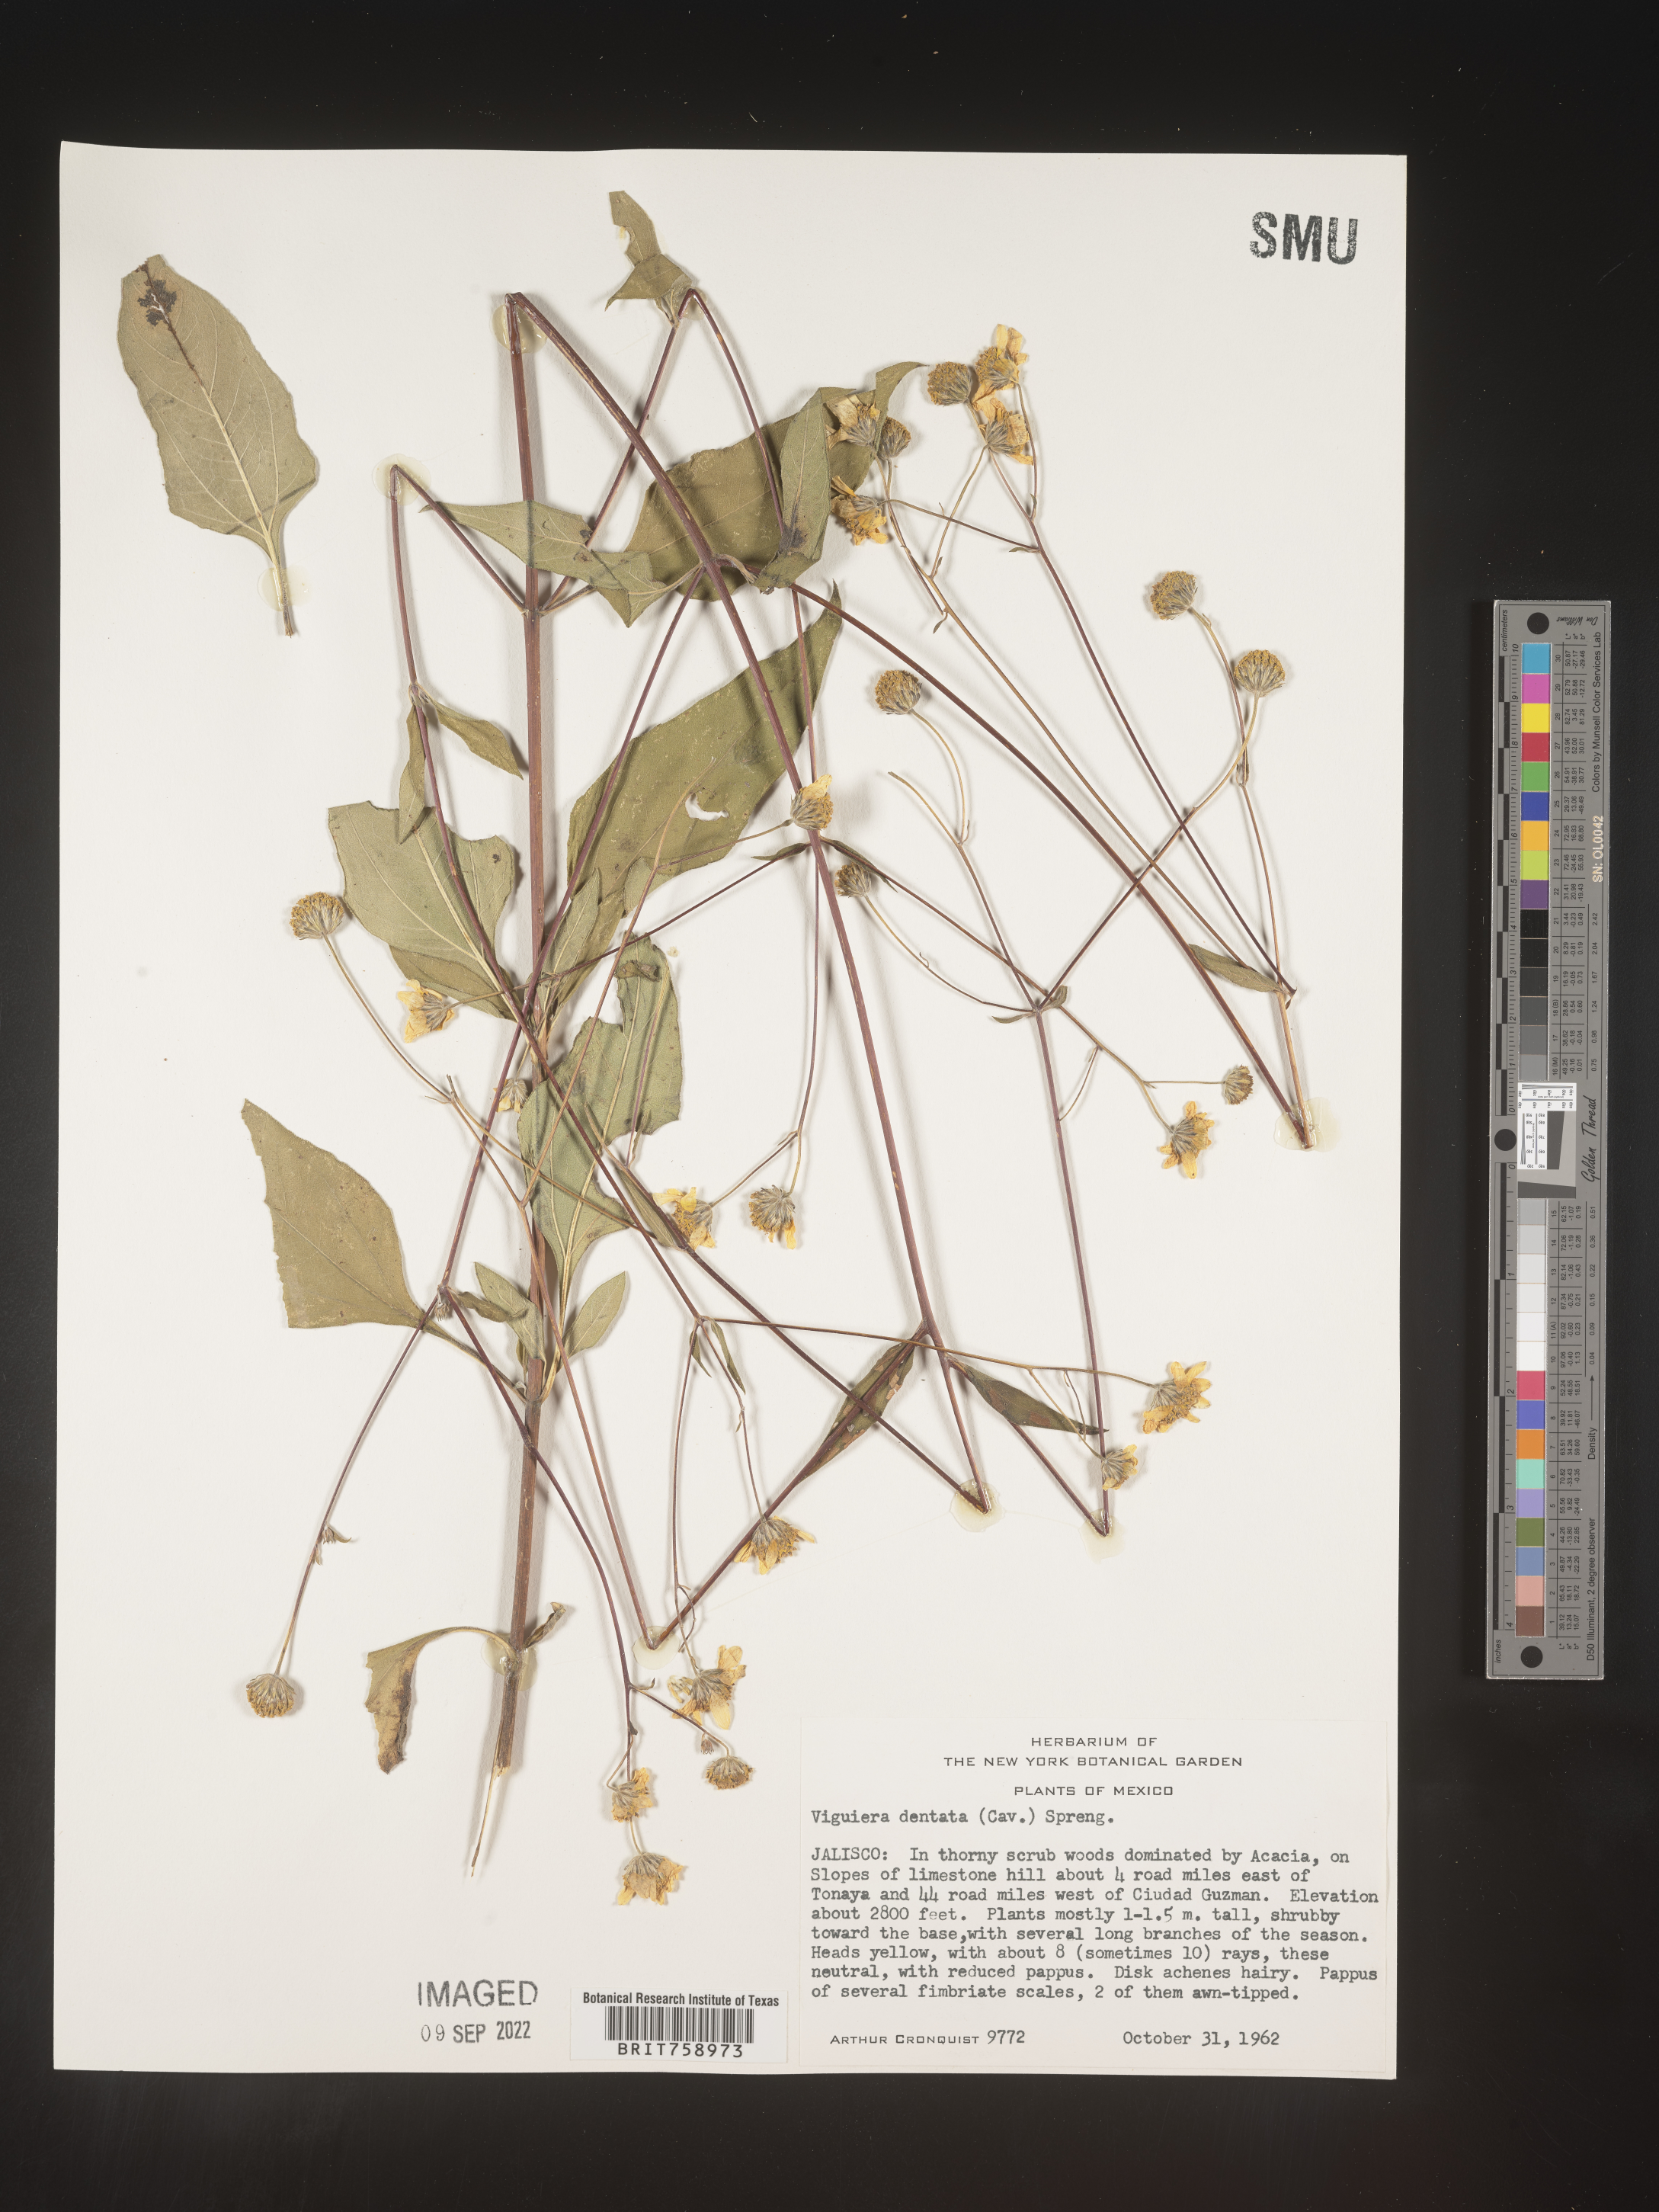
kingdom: Plantae
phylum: Tracheophyta
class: Magnoliopsida
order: Asterales
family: Asteraceae
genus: Viguiera
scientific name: Viguiera
